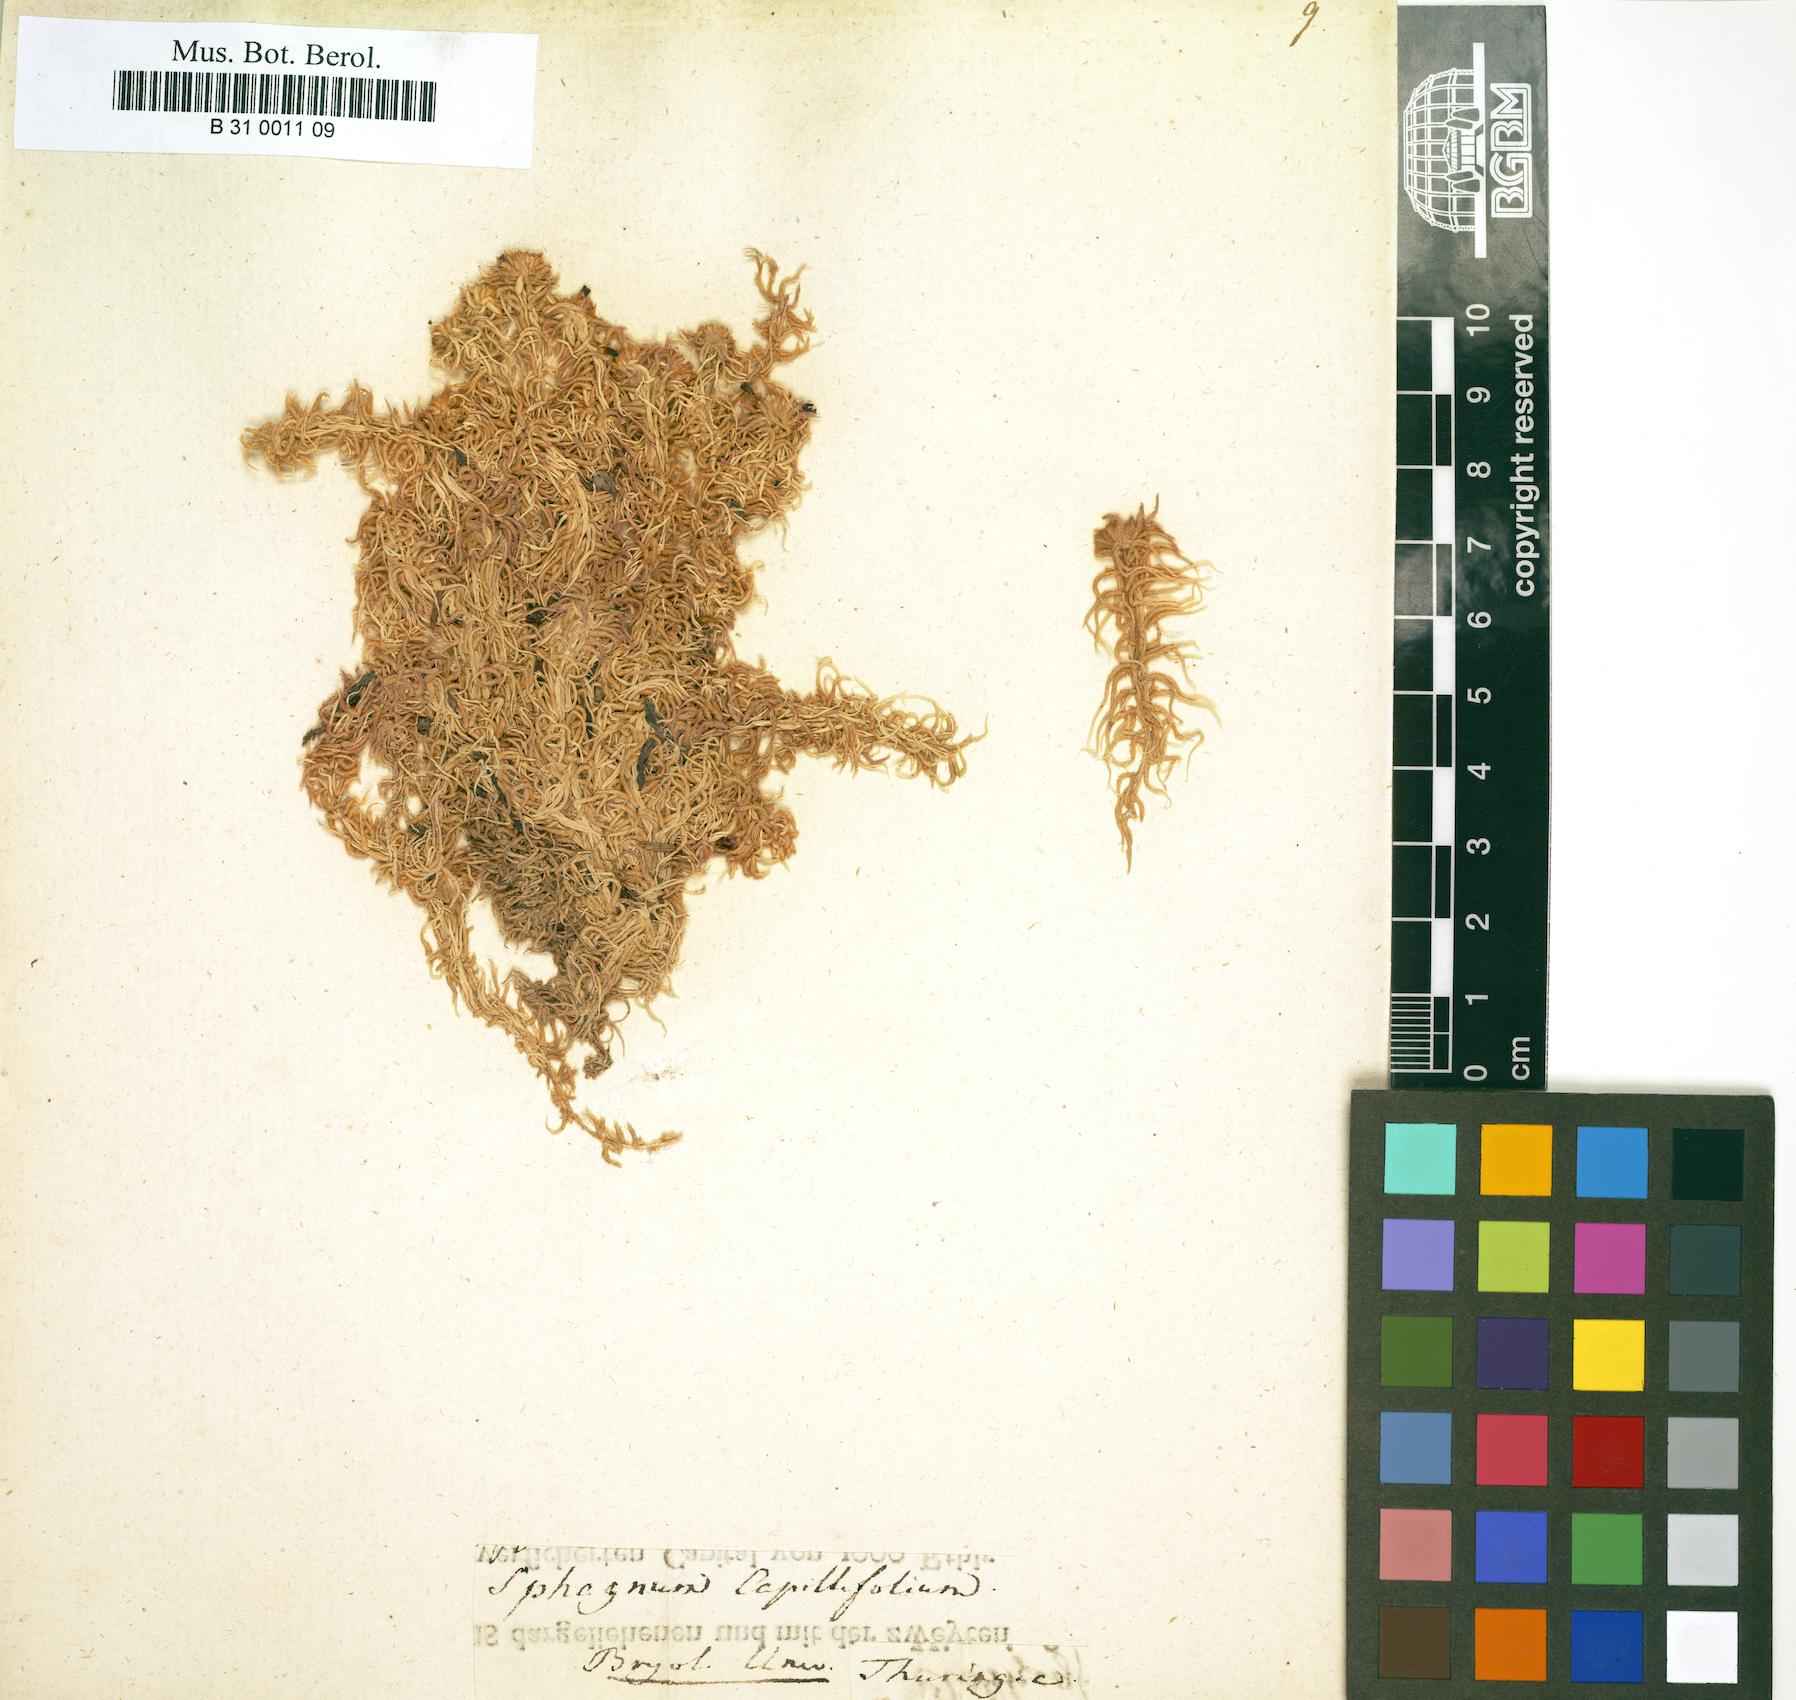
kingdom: Plantae
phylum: Bryophyta
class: Sphagnopsida
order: Sphagnales
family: Sphagnaceae
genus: Sphagnum
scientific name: Sphagnum capillifolium
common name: Small red peat moss
